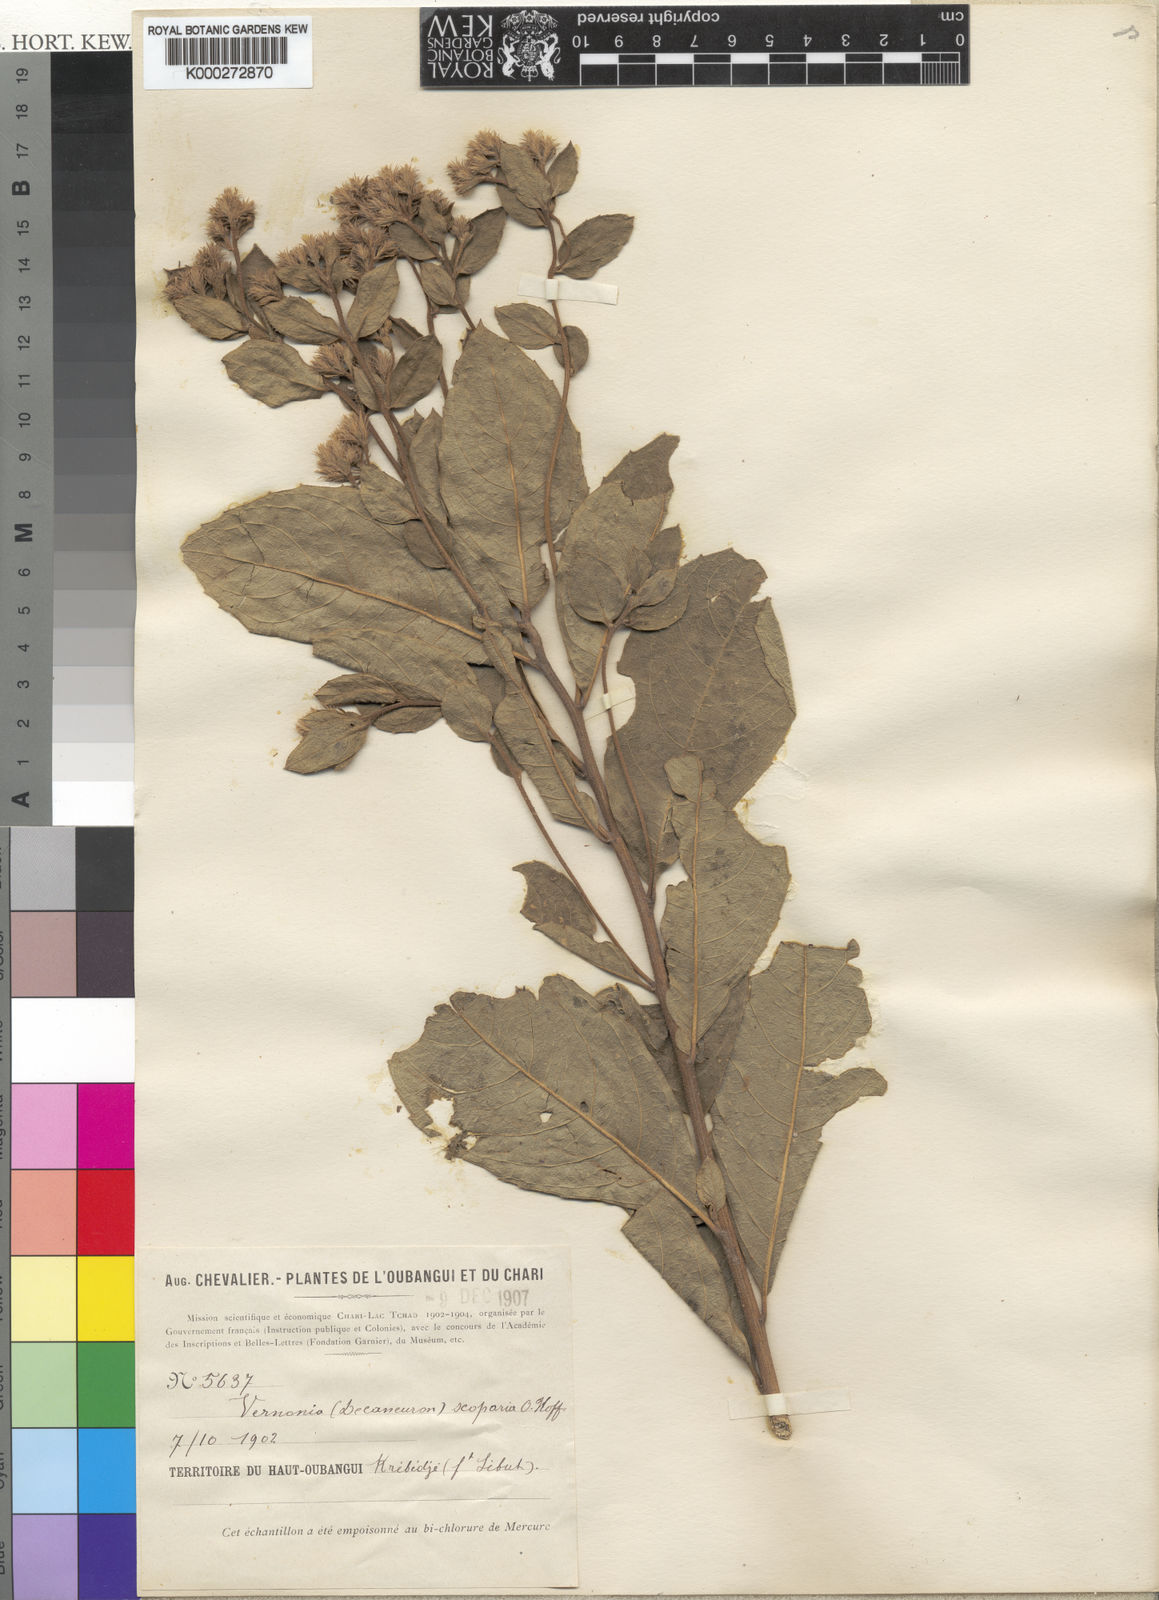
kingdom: Plantae
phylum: Tracheophyta
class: Magnoliopsida
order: Asterales
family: Asteraceae
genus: Vernonia
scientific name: Vernonia scoparia
